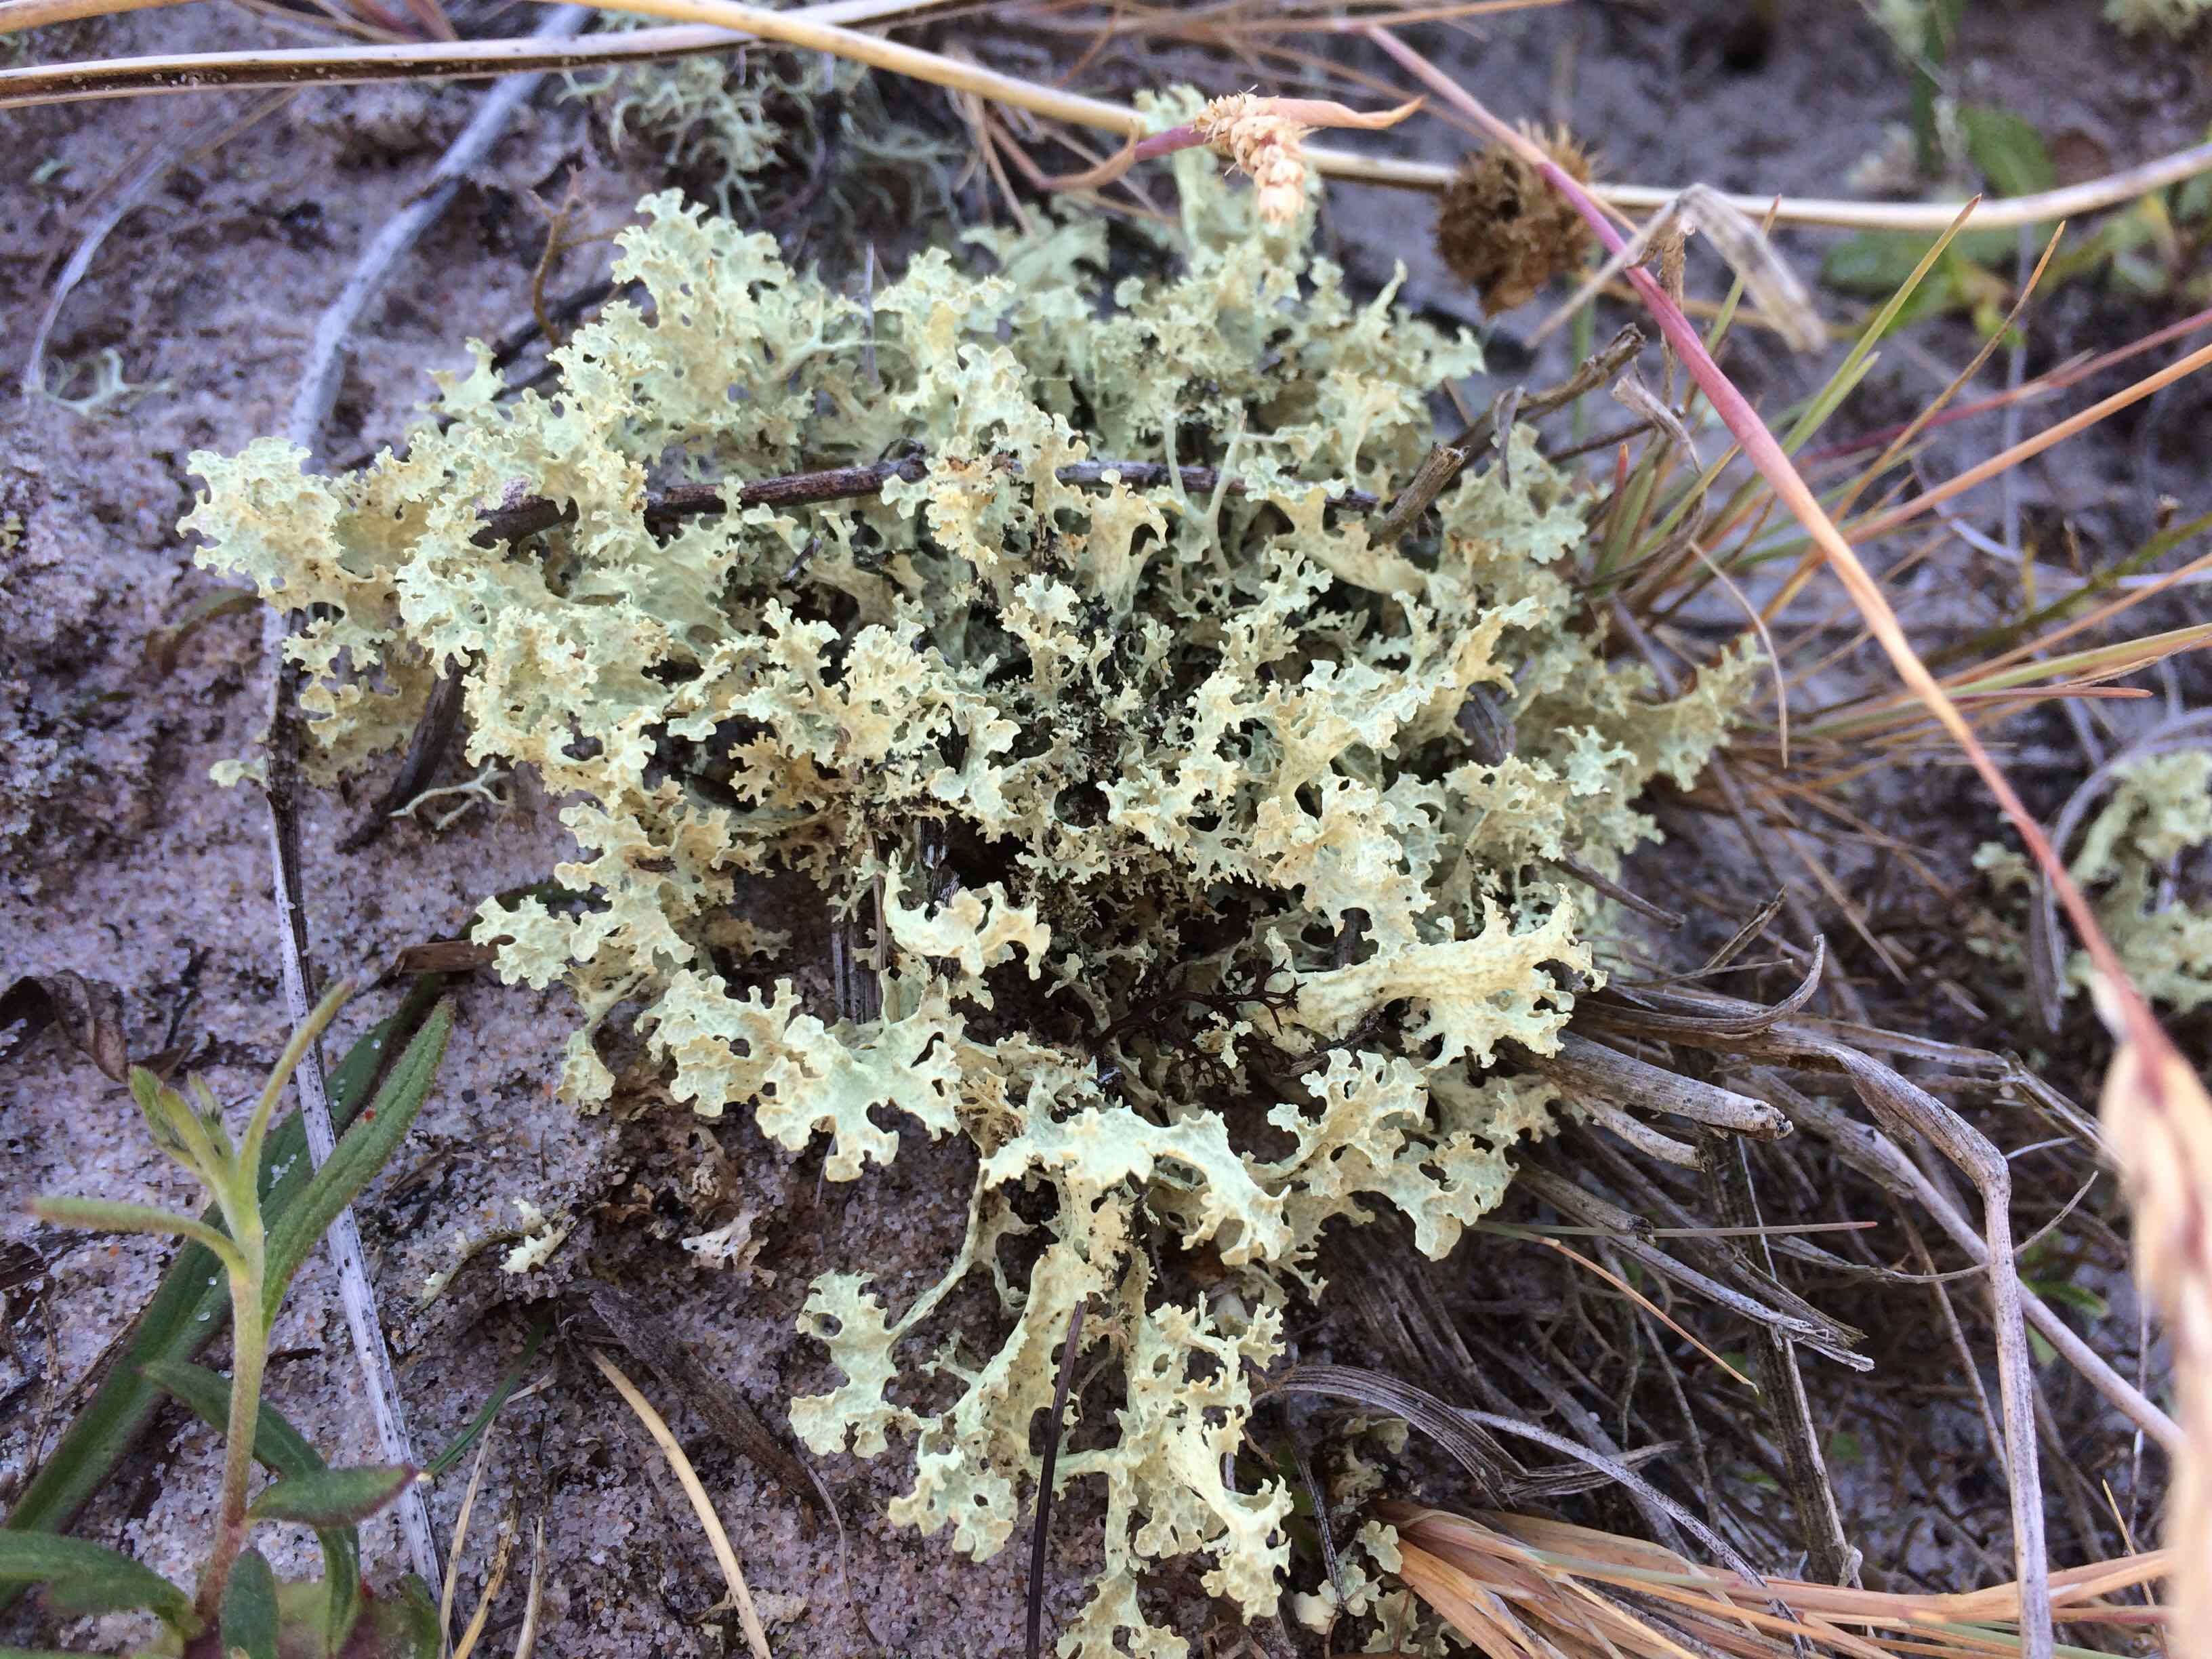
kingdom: Fungi
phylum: Ascomycota
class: Lecanoromycetes
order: Lecanorales
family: Parmeliaceae
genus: Nephromopsis
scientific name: Nephromopsis nivalis
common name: sne-kruslav
